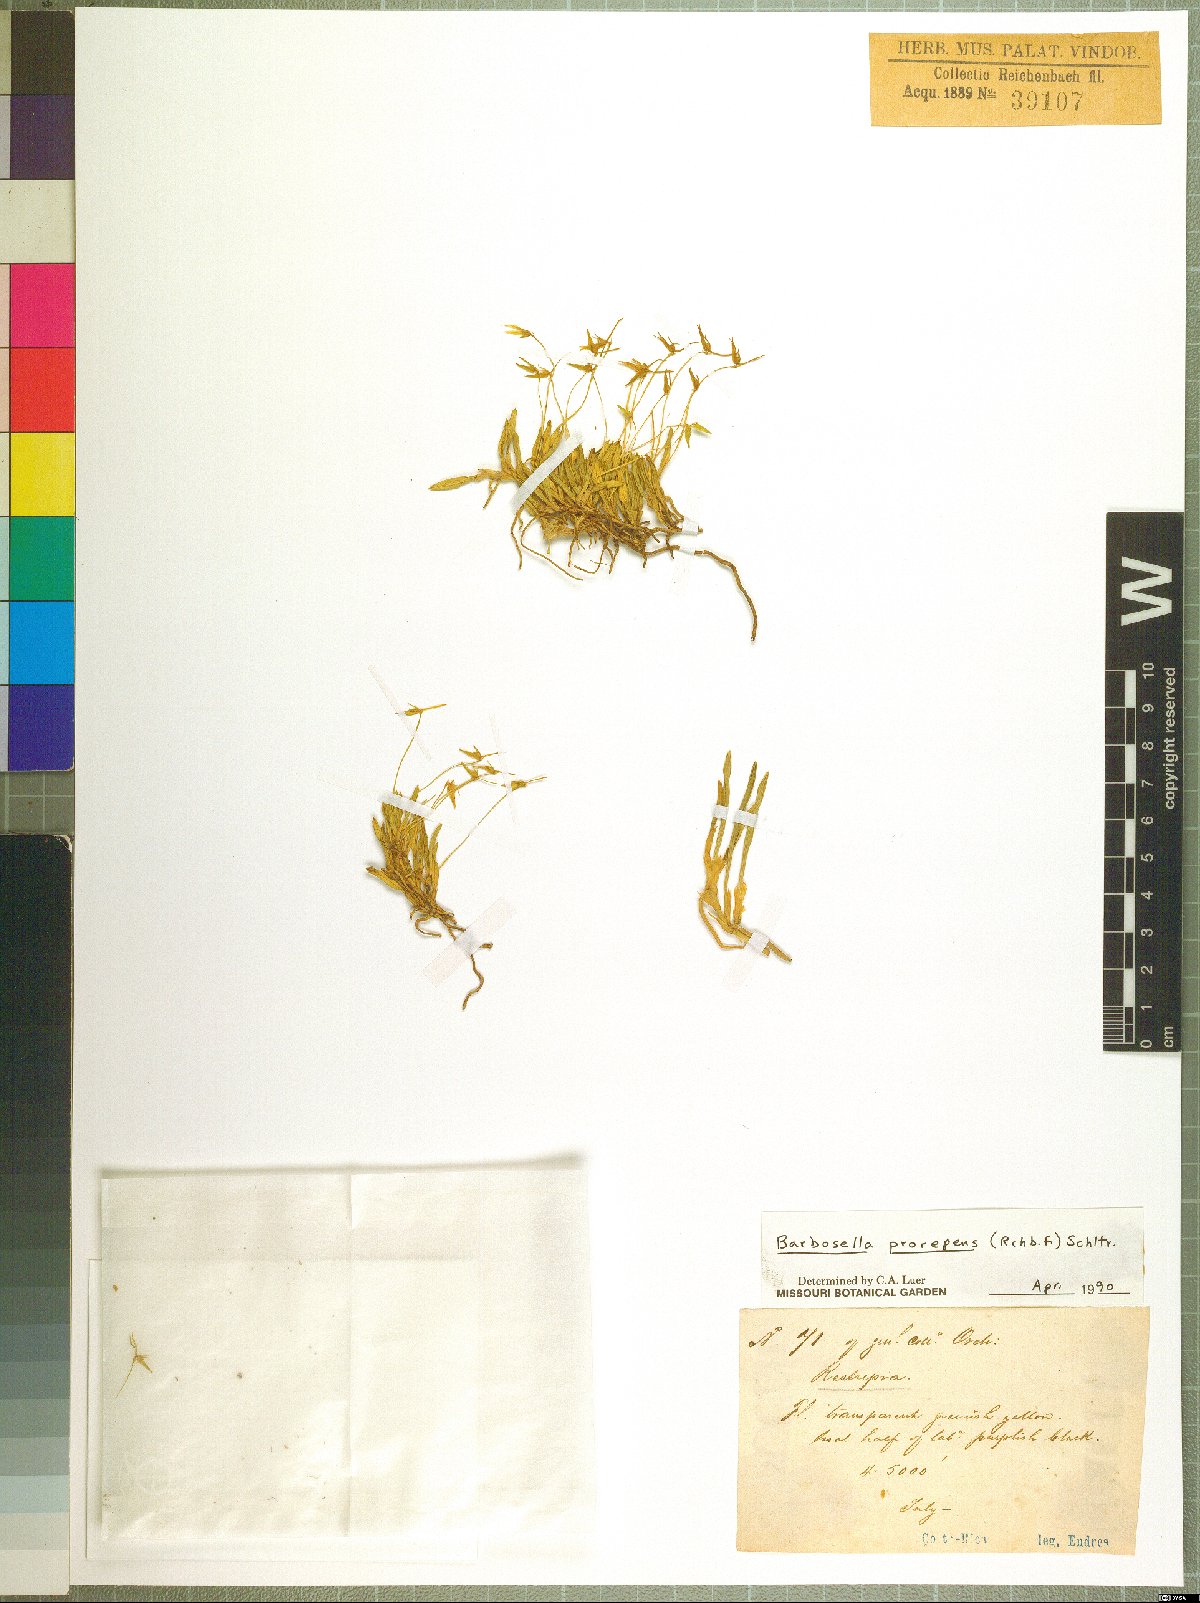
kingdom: Plantae
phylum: Tracheophyta
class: Liliopsida
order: Asparagales
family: Orchidaceae
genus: Barbosella
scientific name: Barbosella prorepens
